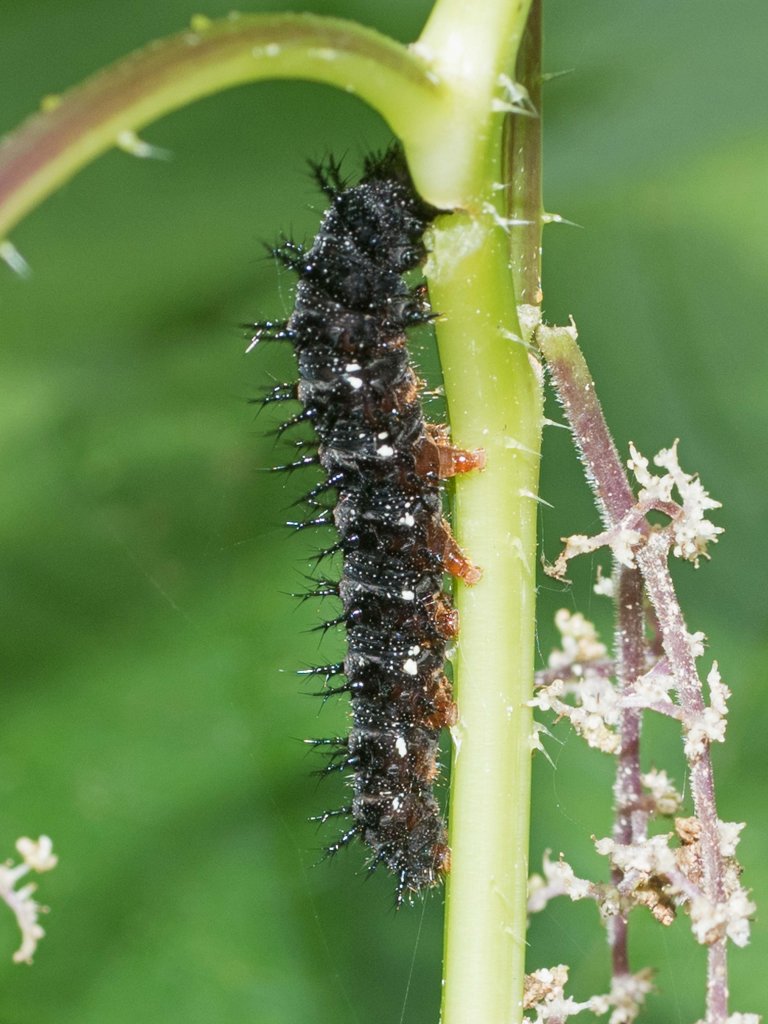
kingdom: Animalia
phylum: Arthropoda
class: Insecta
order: Lepidoptera
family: Nymphalidae
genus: Vanessa
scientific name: Vanessa atalanta
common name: Red Admiral
